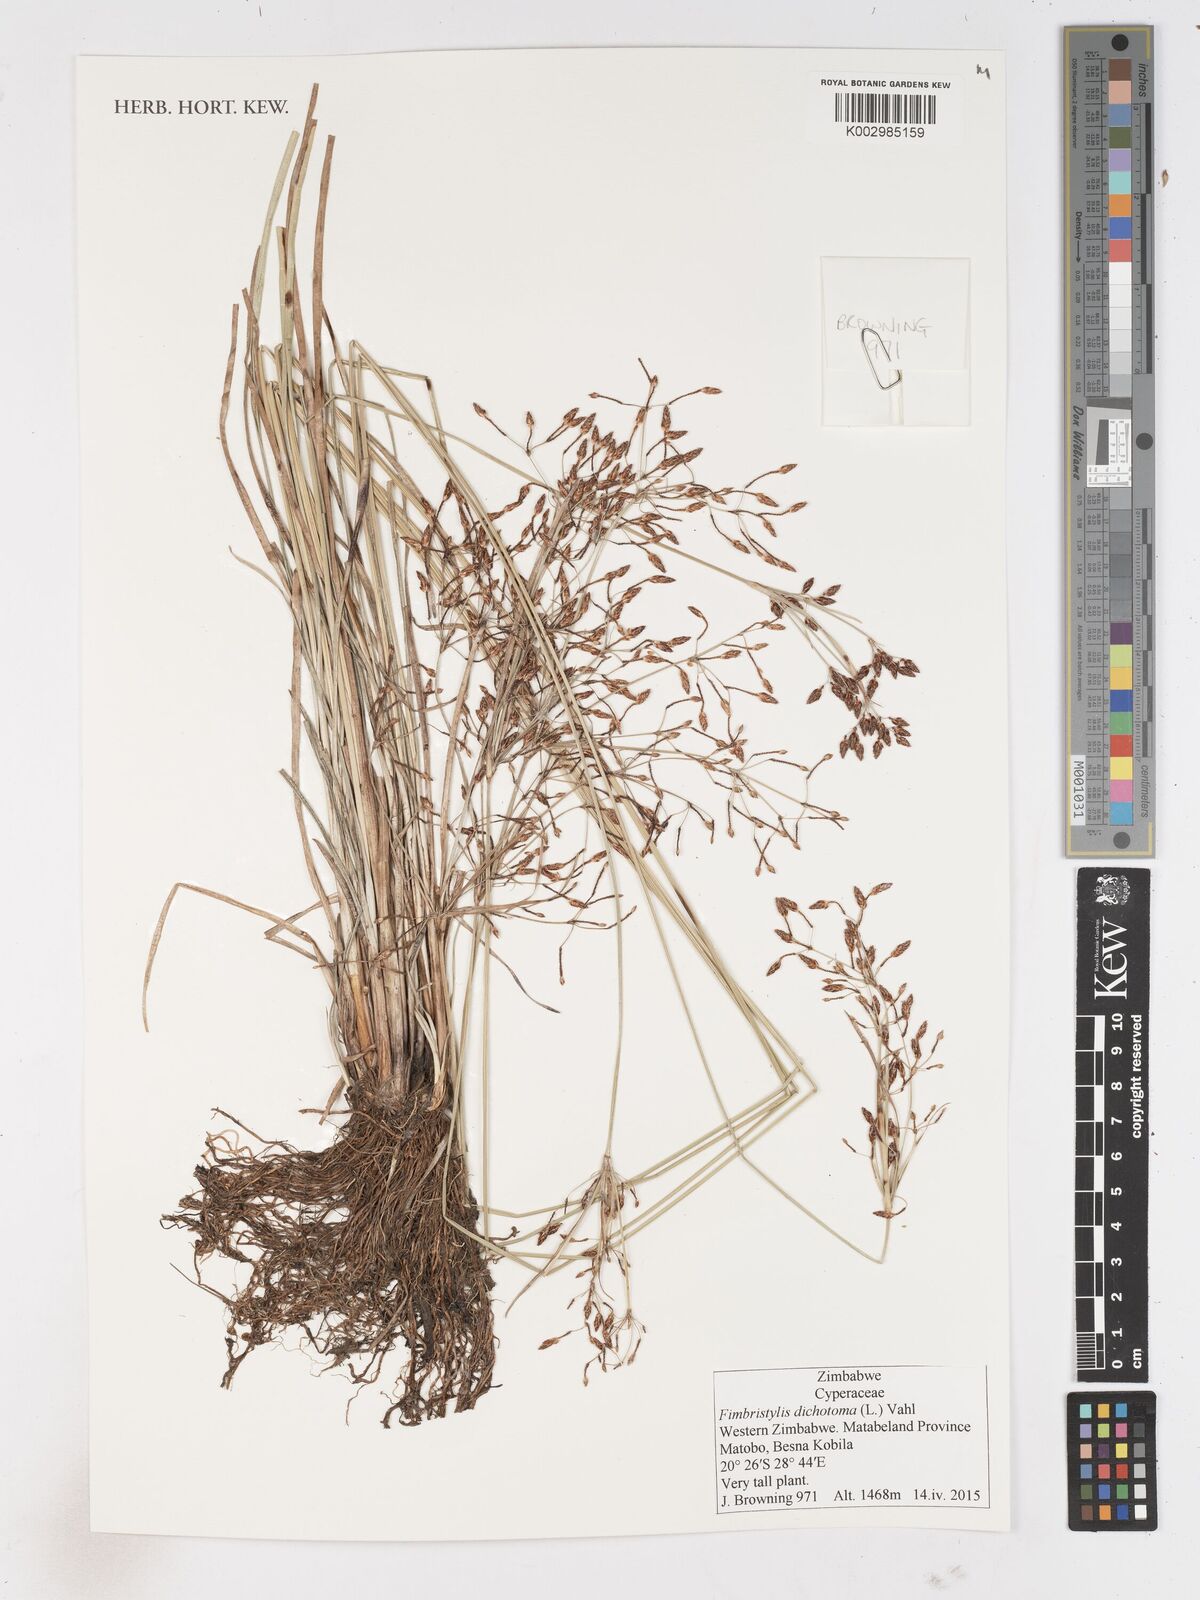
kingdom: Plantae
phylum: Tracheophyta
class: Liliopsida
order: Poales
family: Cyperaceae
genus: Fimbristylis
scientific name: Fimbristylis dichotoma
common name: Forked fimbry
